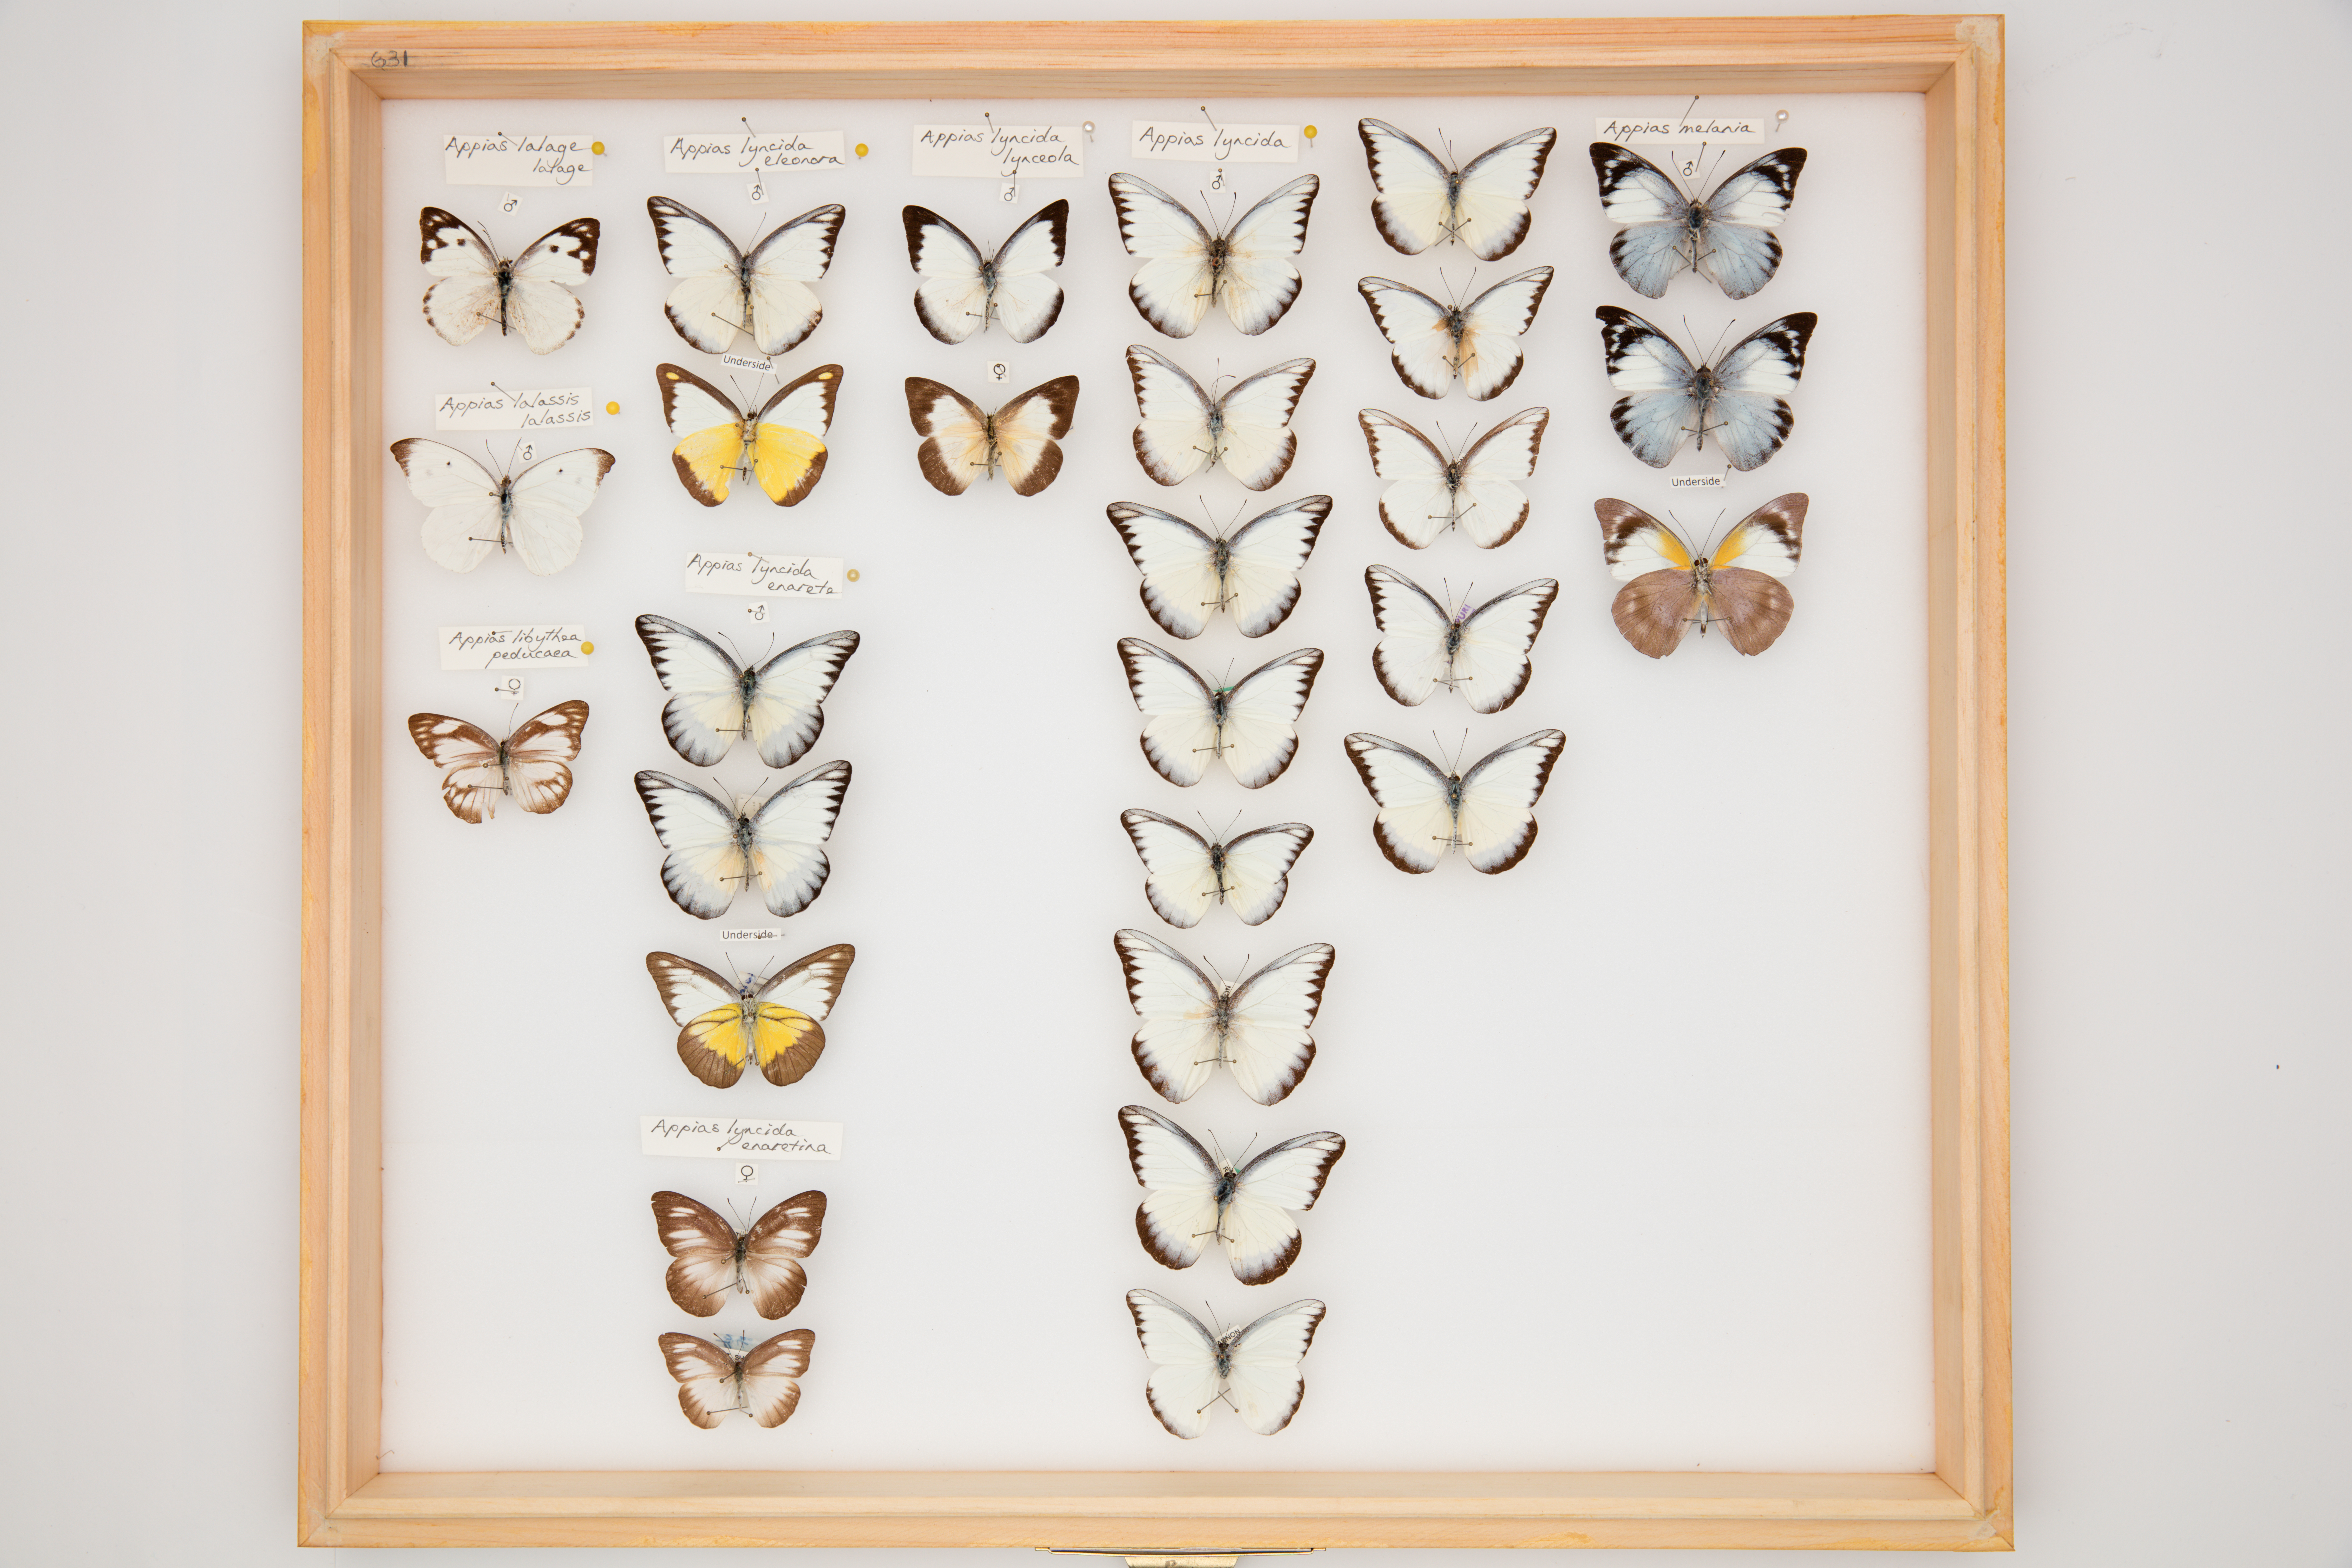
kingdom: Animalia
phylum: Arthropoda
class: Insecta
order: Lepidoptera
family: Pieridae
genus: Appias
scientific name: Appias lyncida
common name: Chocolate albatross
